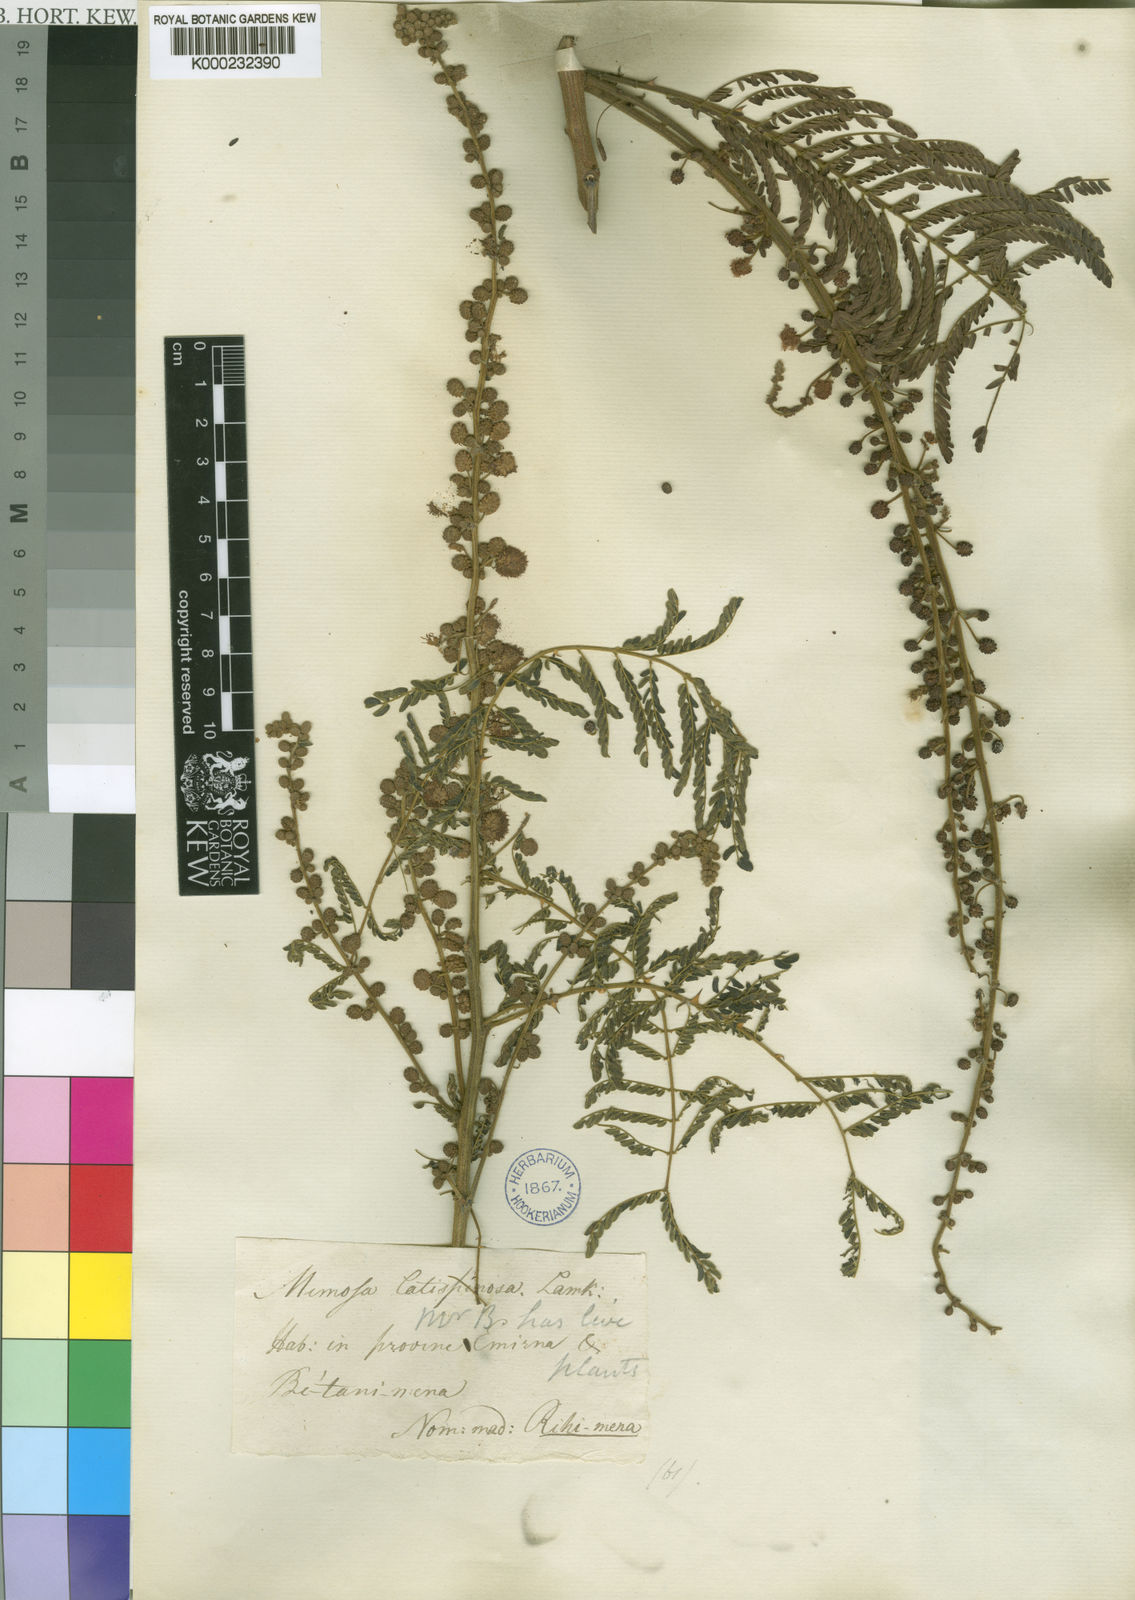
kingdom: Plantae
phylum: Tracheophyta
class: Magnoliopsida
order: Fabales
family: Fabaceae
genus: Mimosa
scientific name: Mimosa latispinosa
